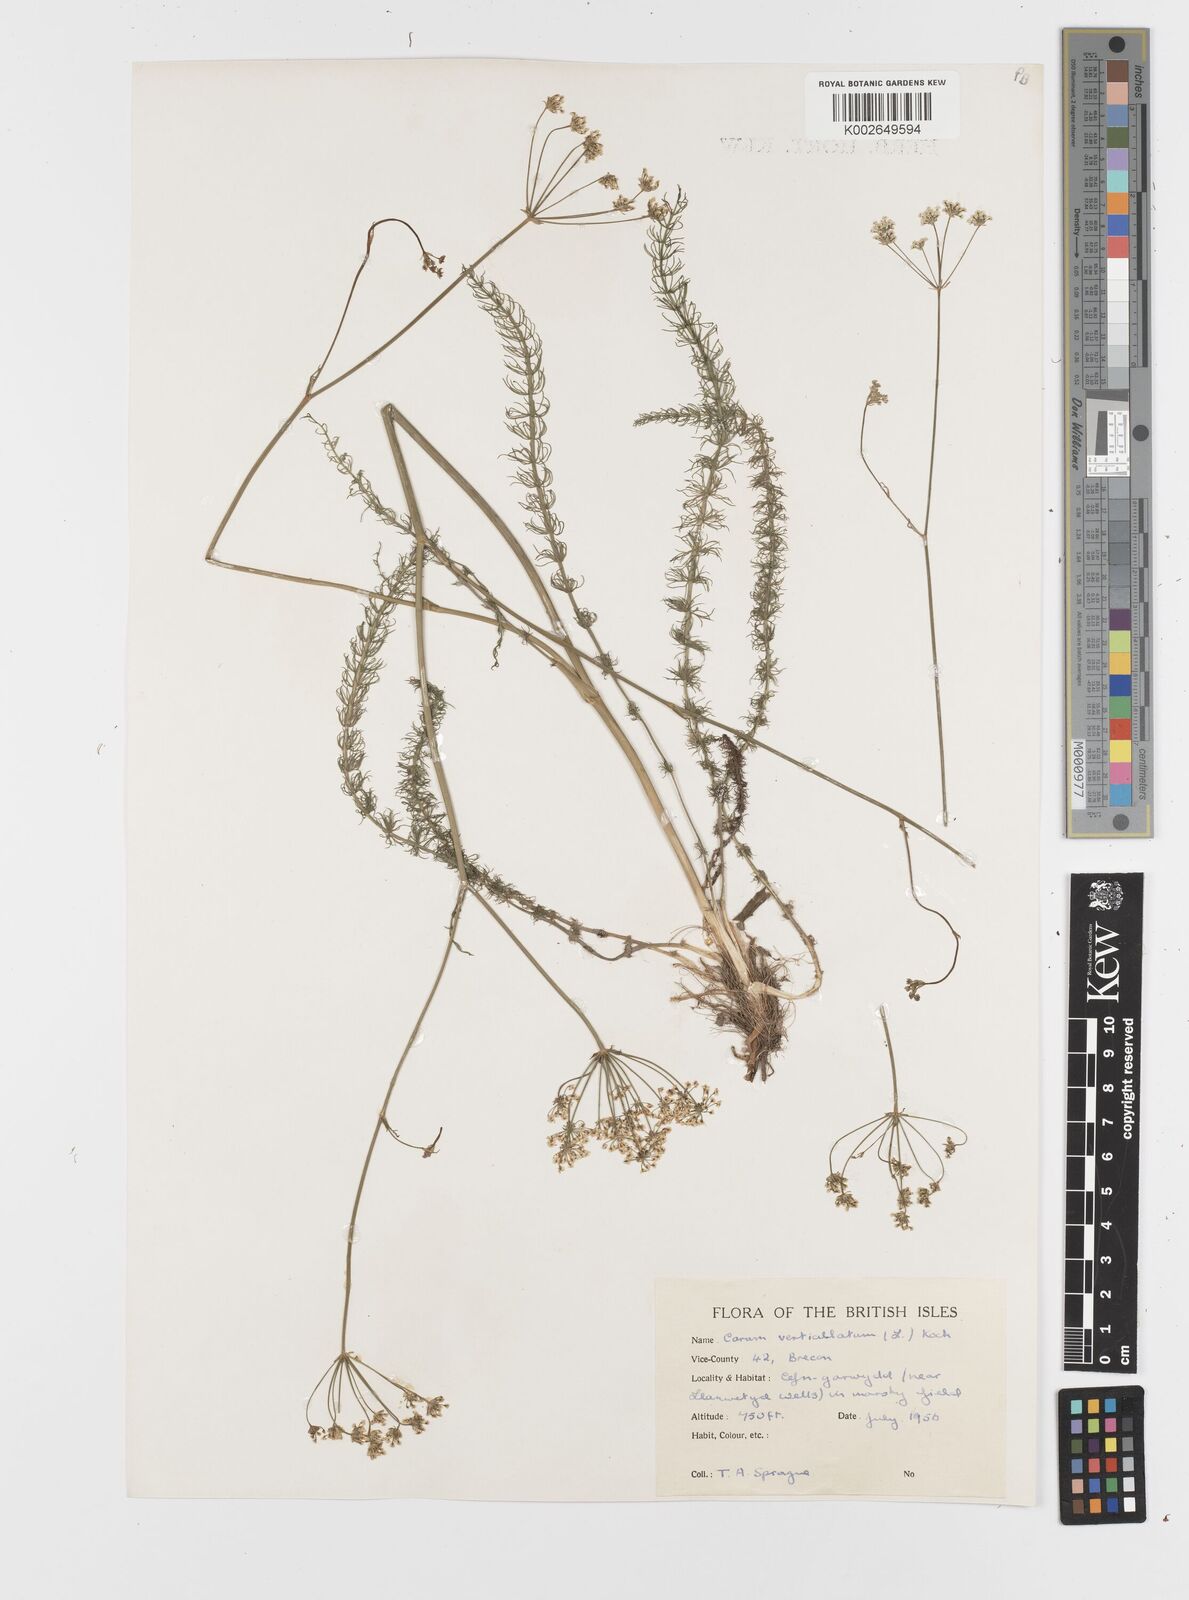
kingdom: Plantae
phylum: Tracheophyta
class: Magnoliopsida
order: Apiales
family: Apiaceae
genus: Trocdaris
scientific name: Trocdaris verticillatum
